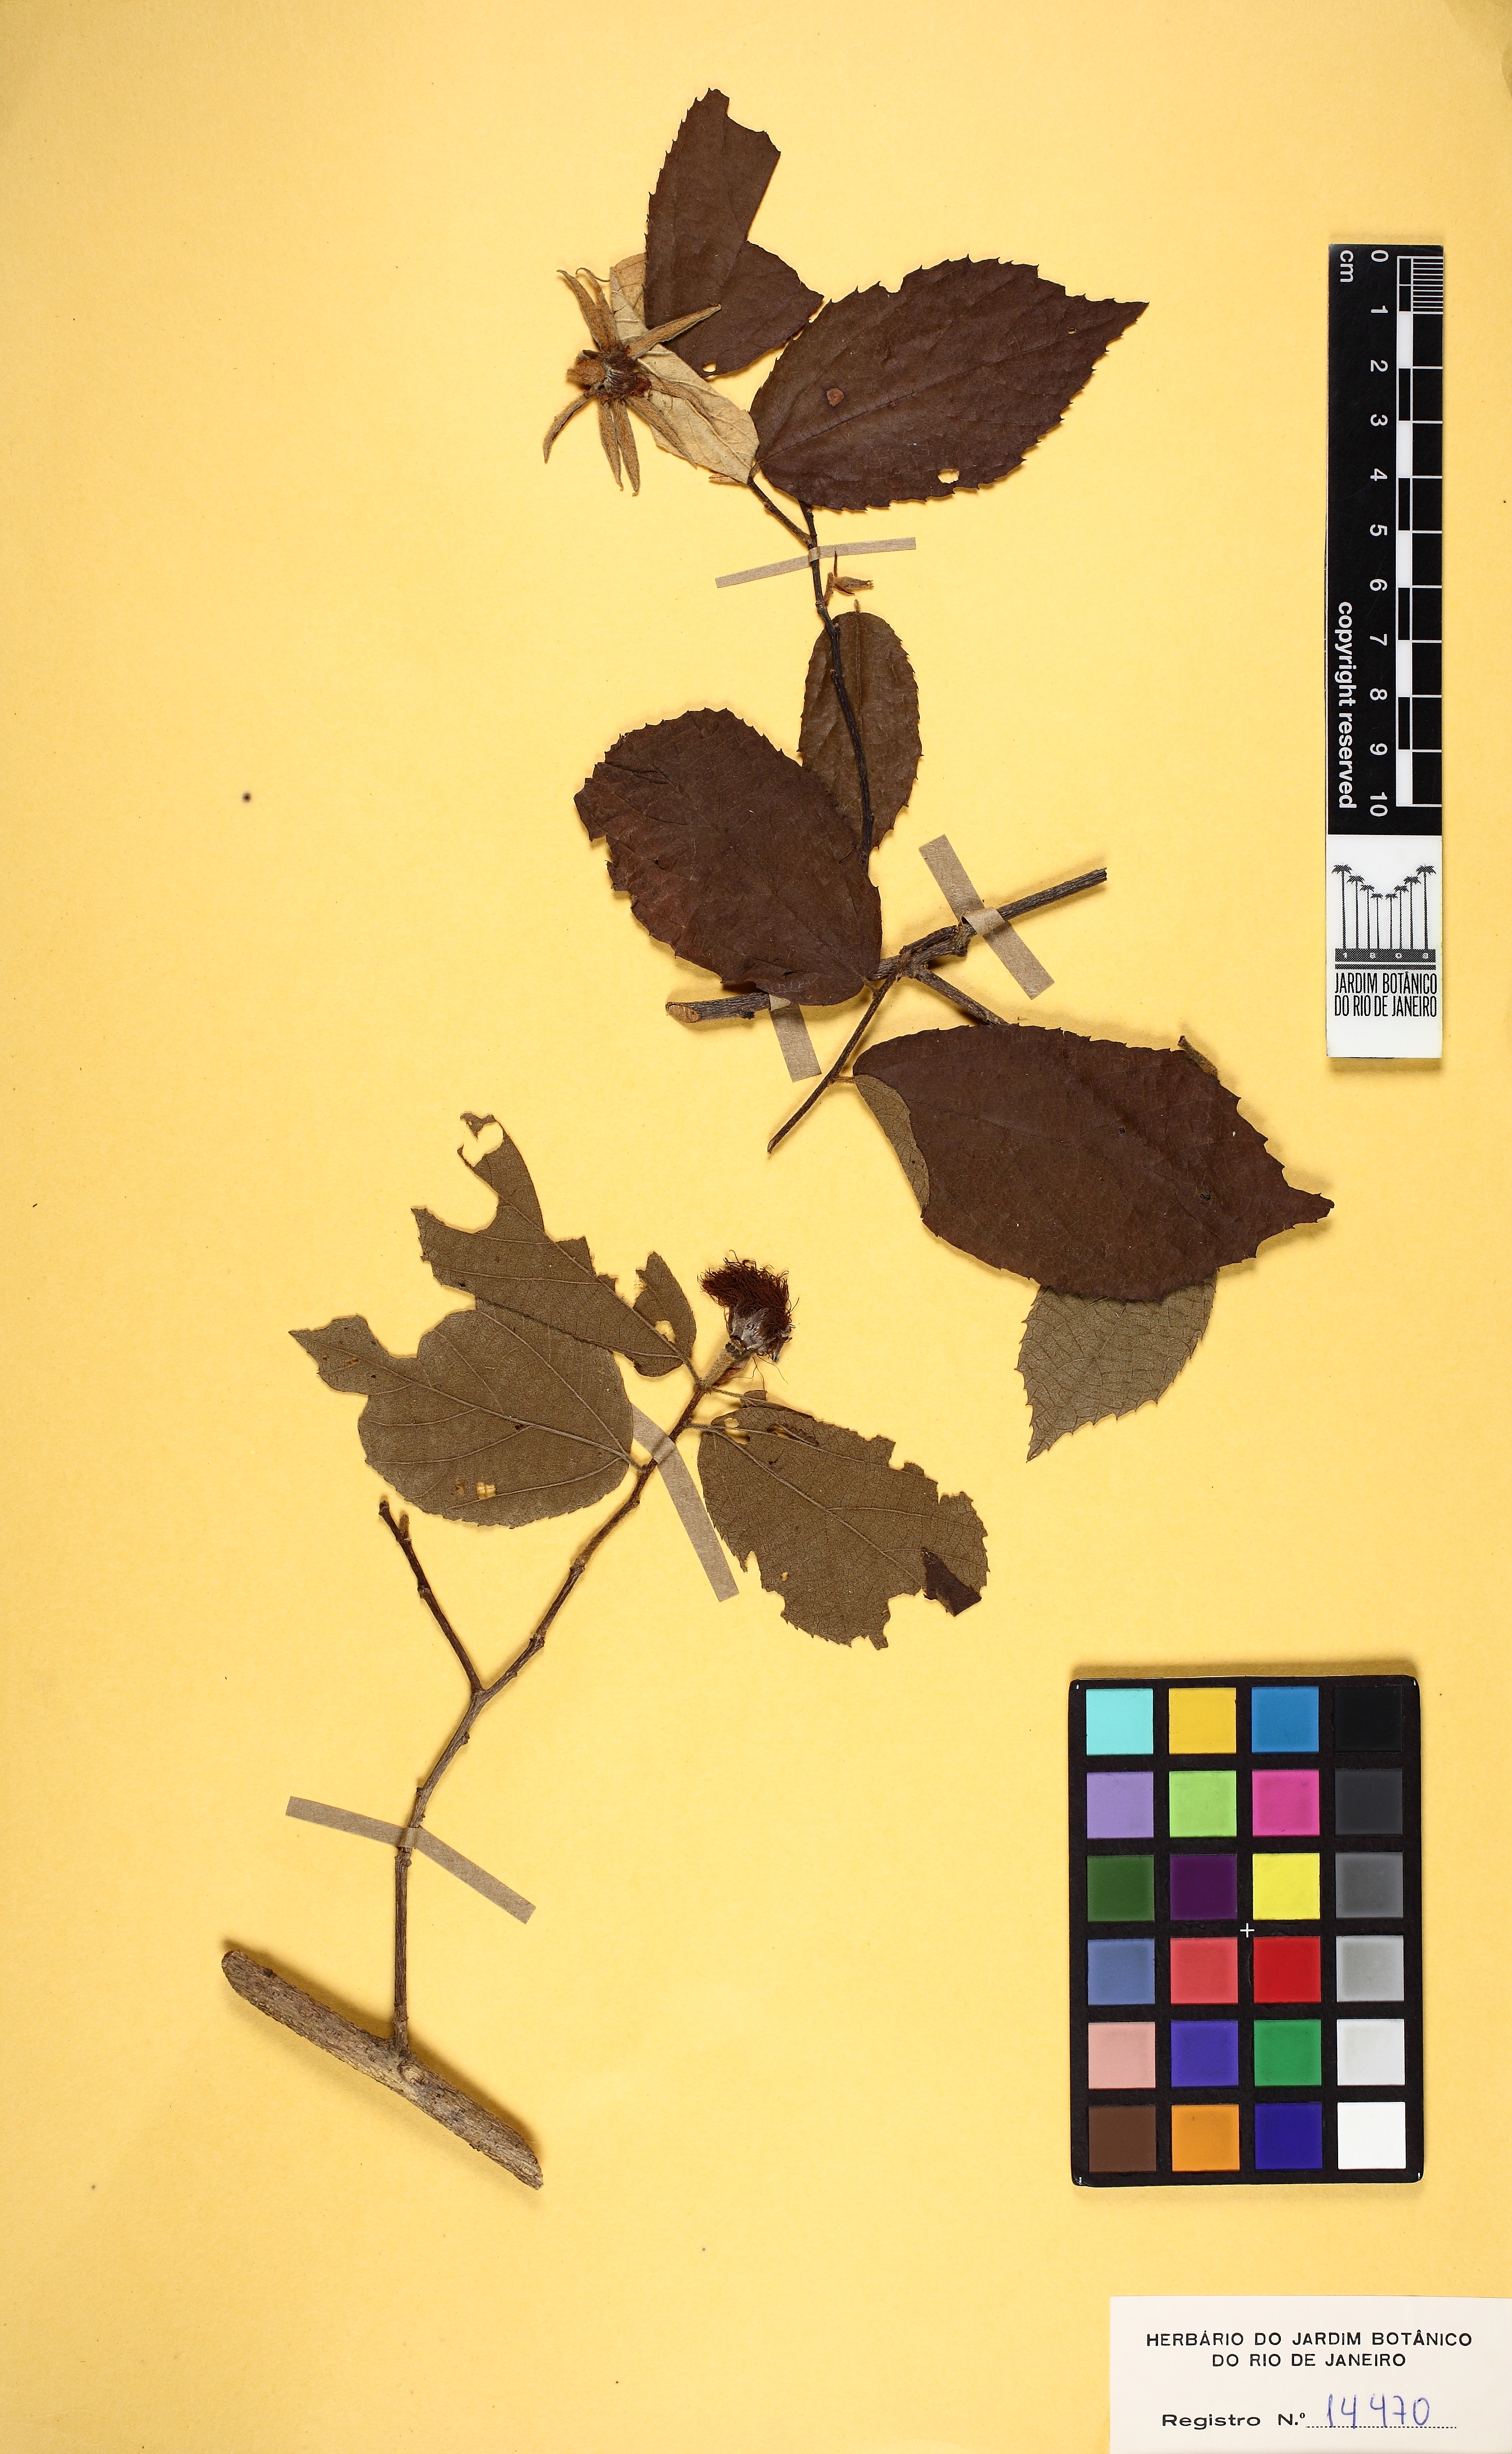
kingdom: Plantae
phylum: Tracheophyta
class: Magnoliopsida
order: Malvales
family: Malvaceae
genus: Luehea
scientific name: Luehea candicans
